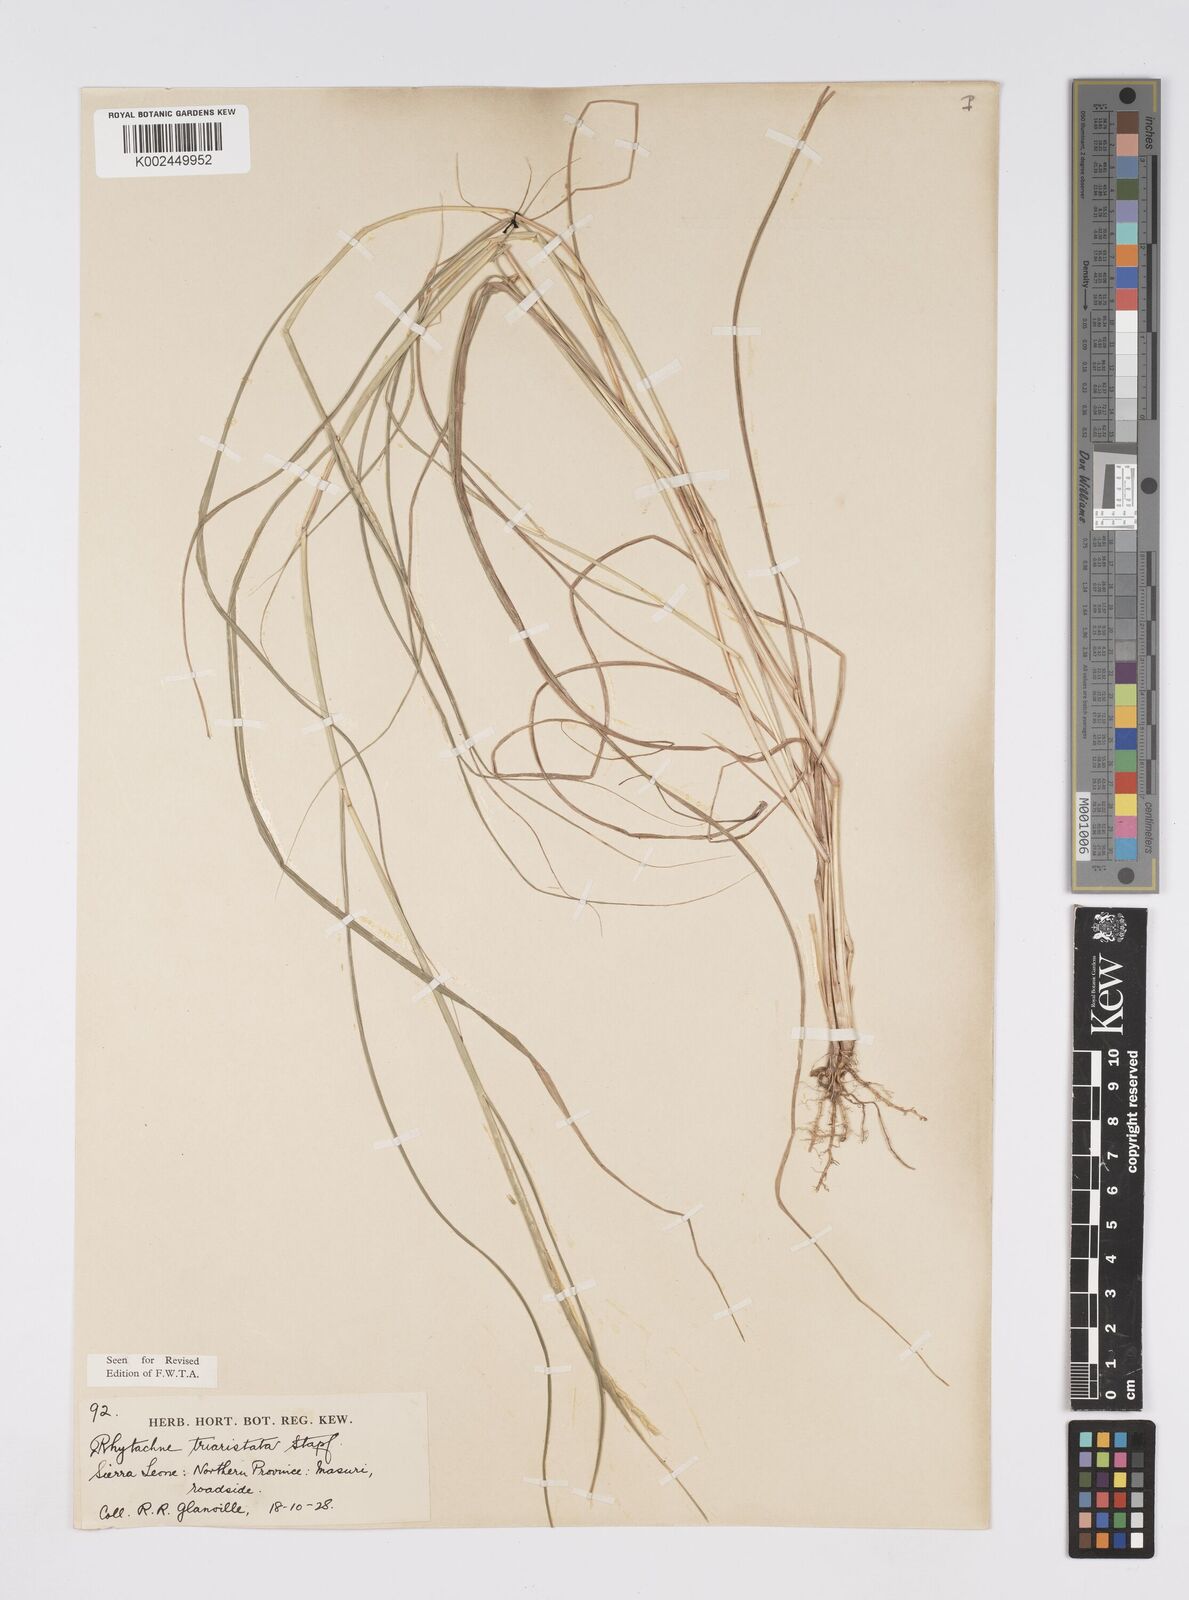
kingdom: Plantae
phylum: Tracheophyta
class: Liliopsida
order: Poales
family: Poaceae
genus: Rhytachne
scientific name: Rhytachne triaristata
